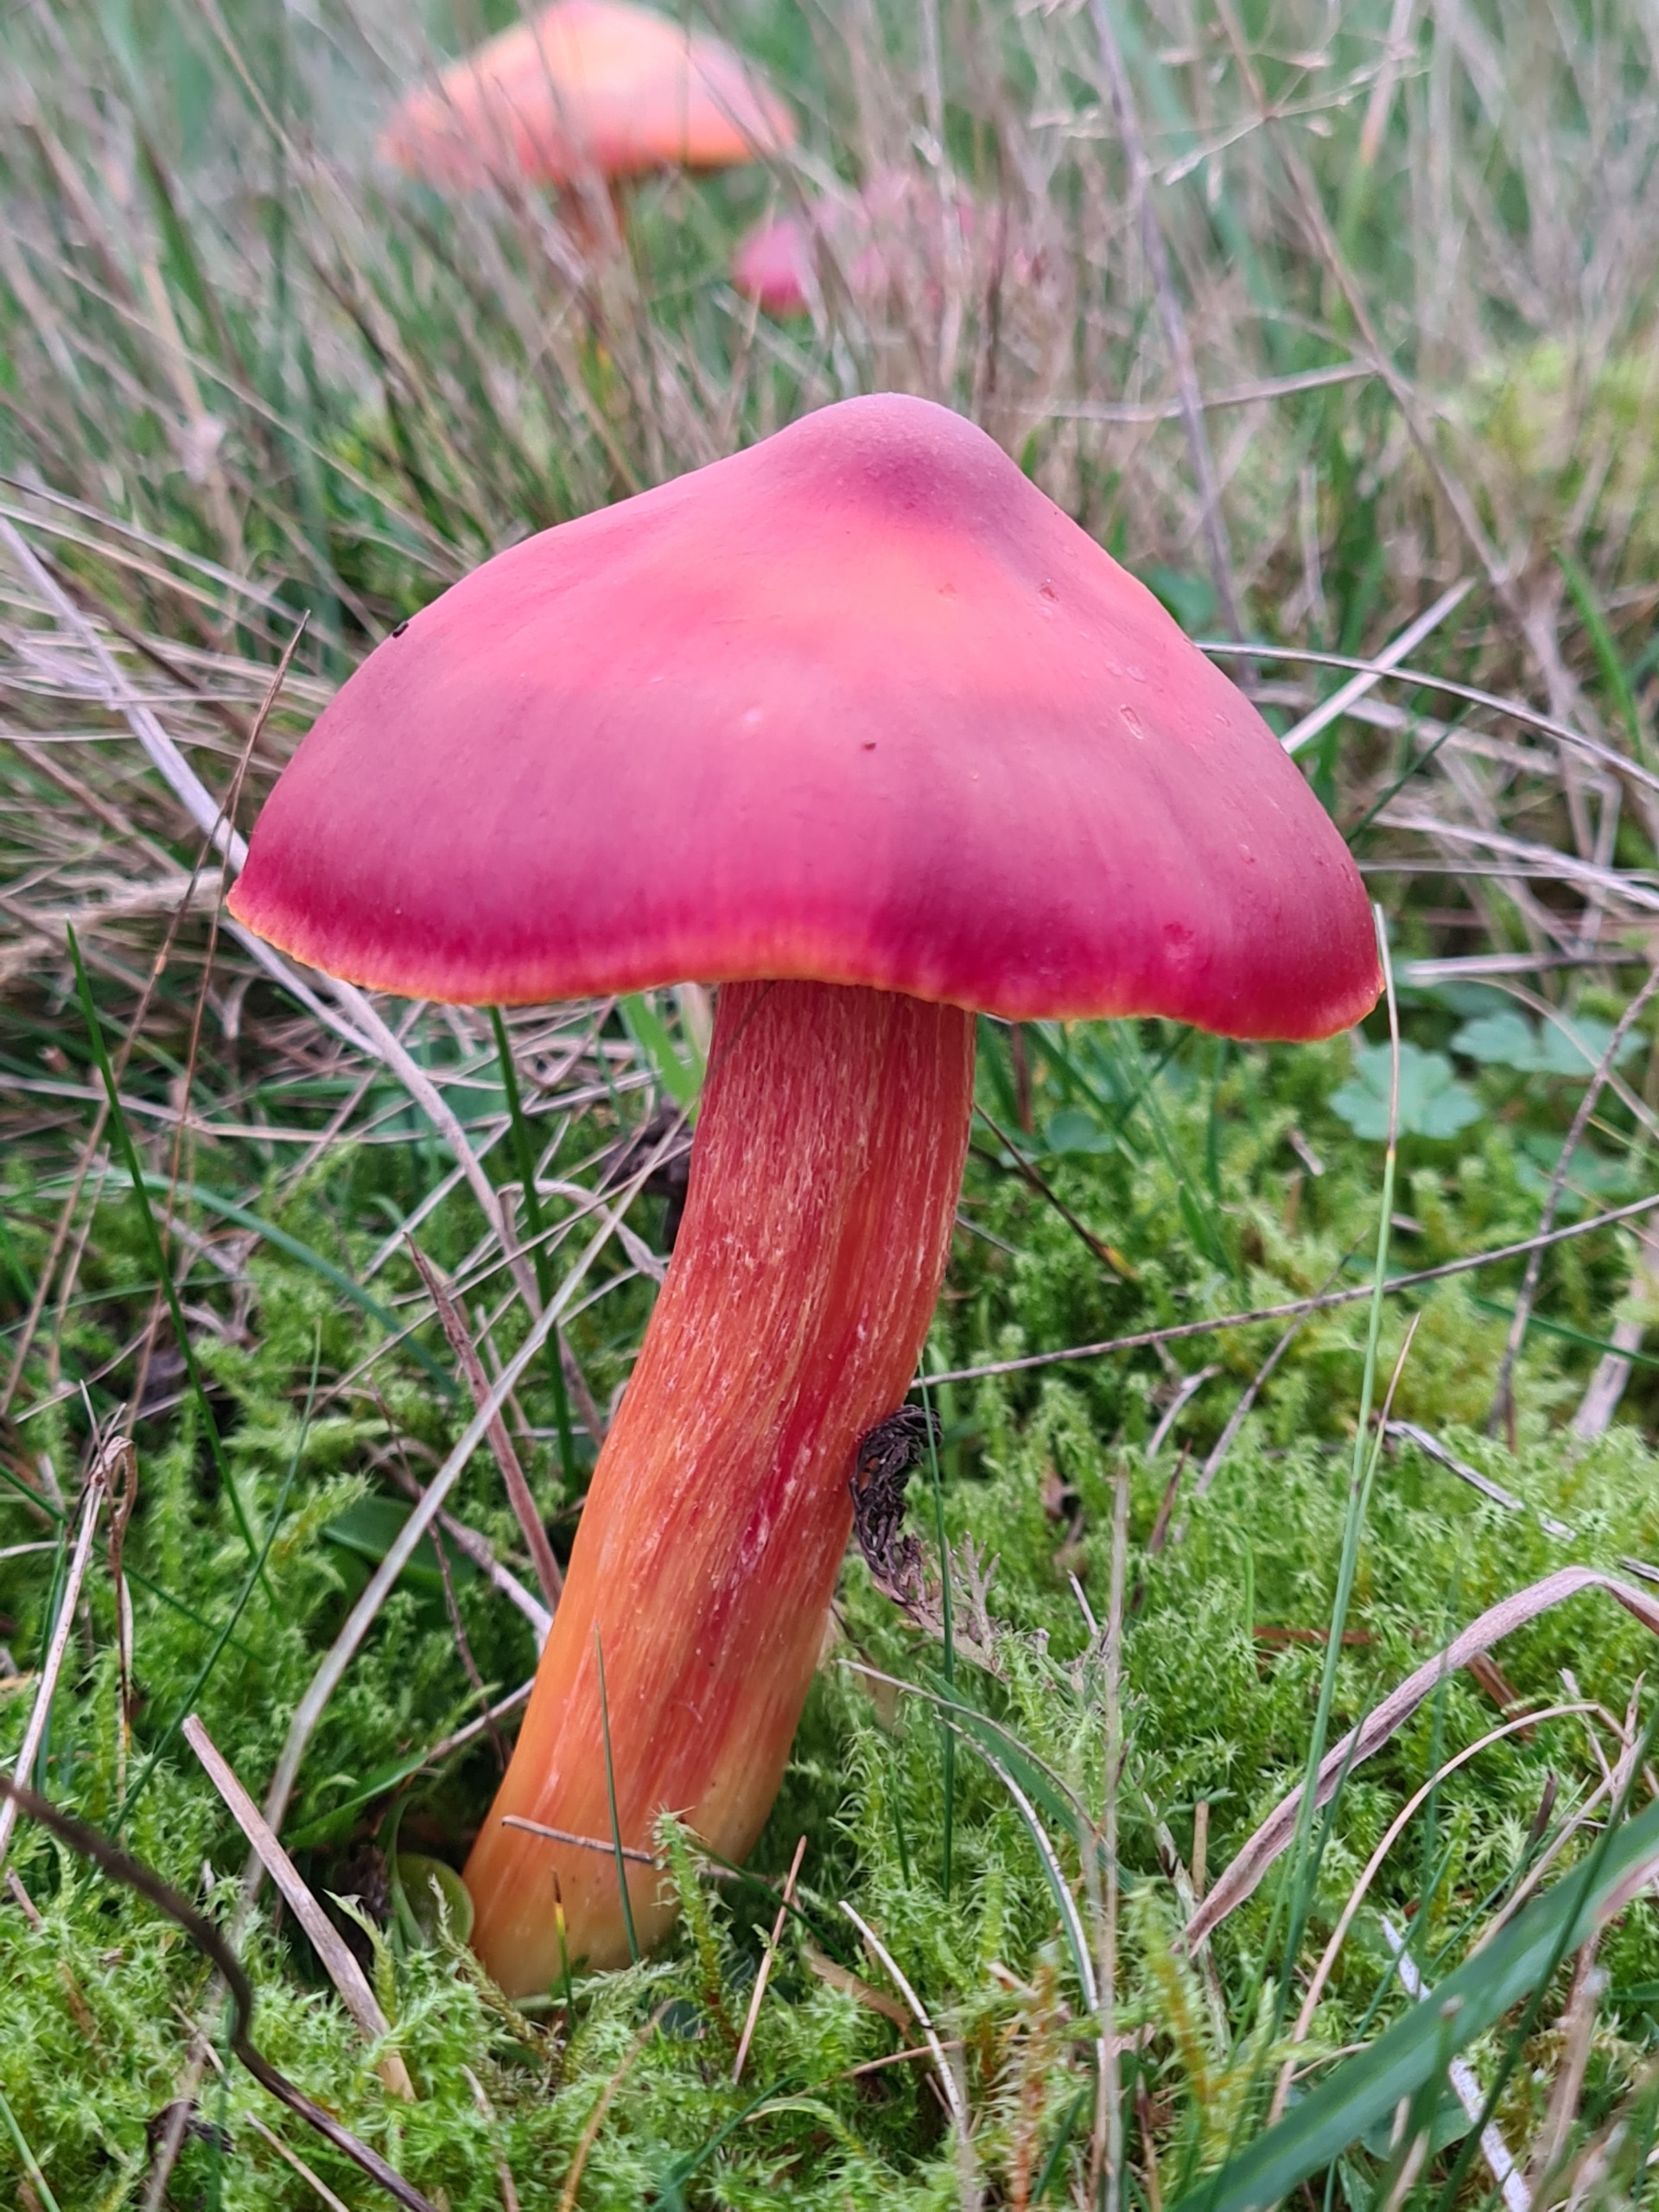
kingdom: Fungi
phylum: Basidiomycota
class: Agaricomycetes
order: Agaricales
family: Hygrophoraceae
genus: Hygrocybe
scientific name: Hygrocybe punicea
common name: Skarlagen-vokshat
